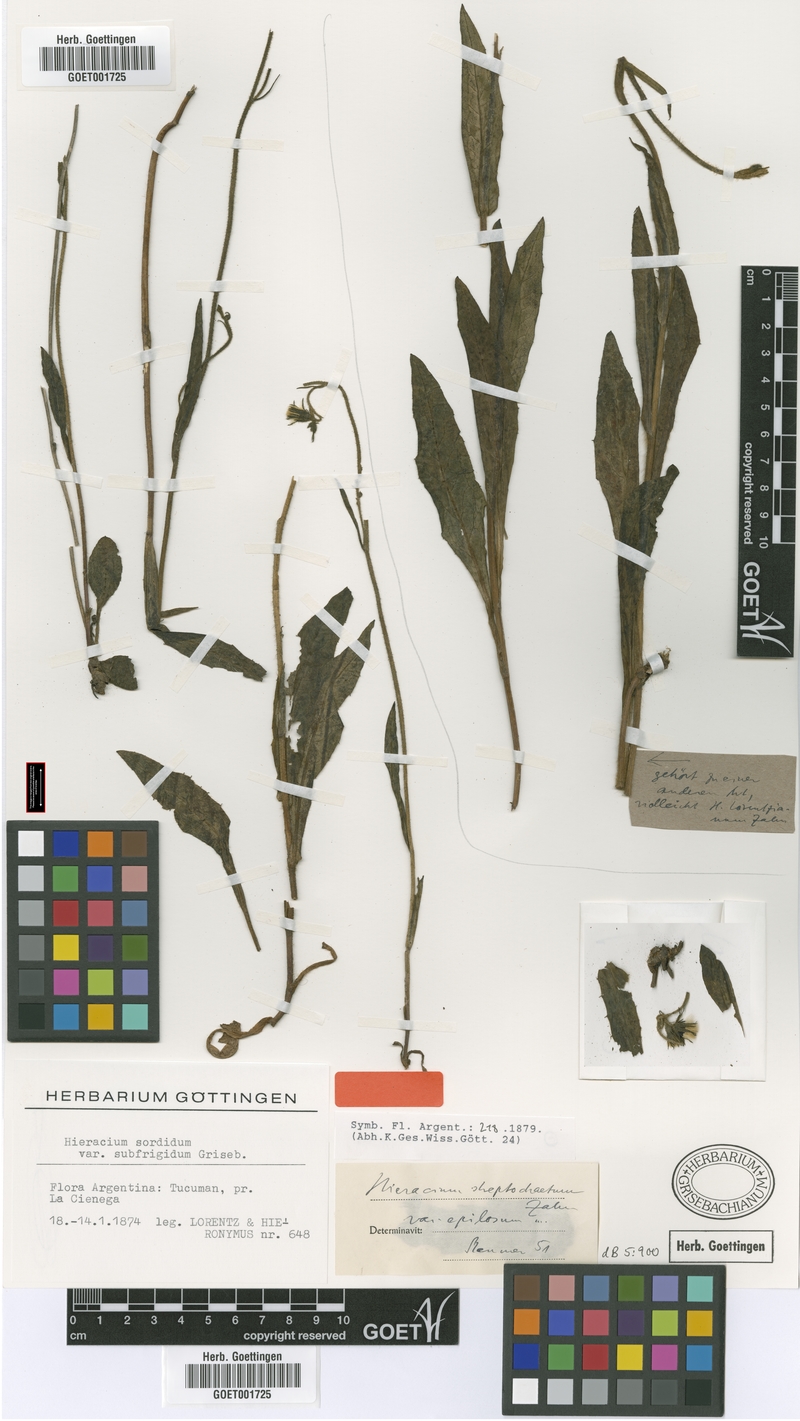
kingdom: Plantae
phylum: Tracheophyta
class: Magnoliopsida
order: Asterales
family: Asteraceae
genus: Hieracium
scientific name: Hieracium streptochaetum
